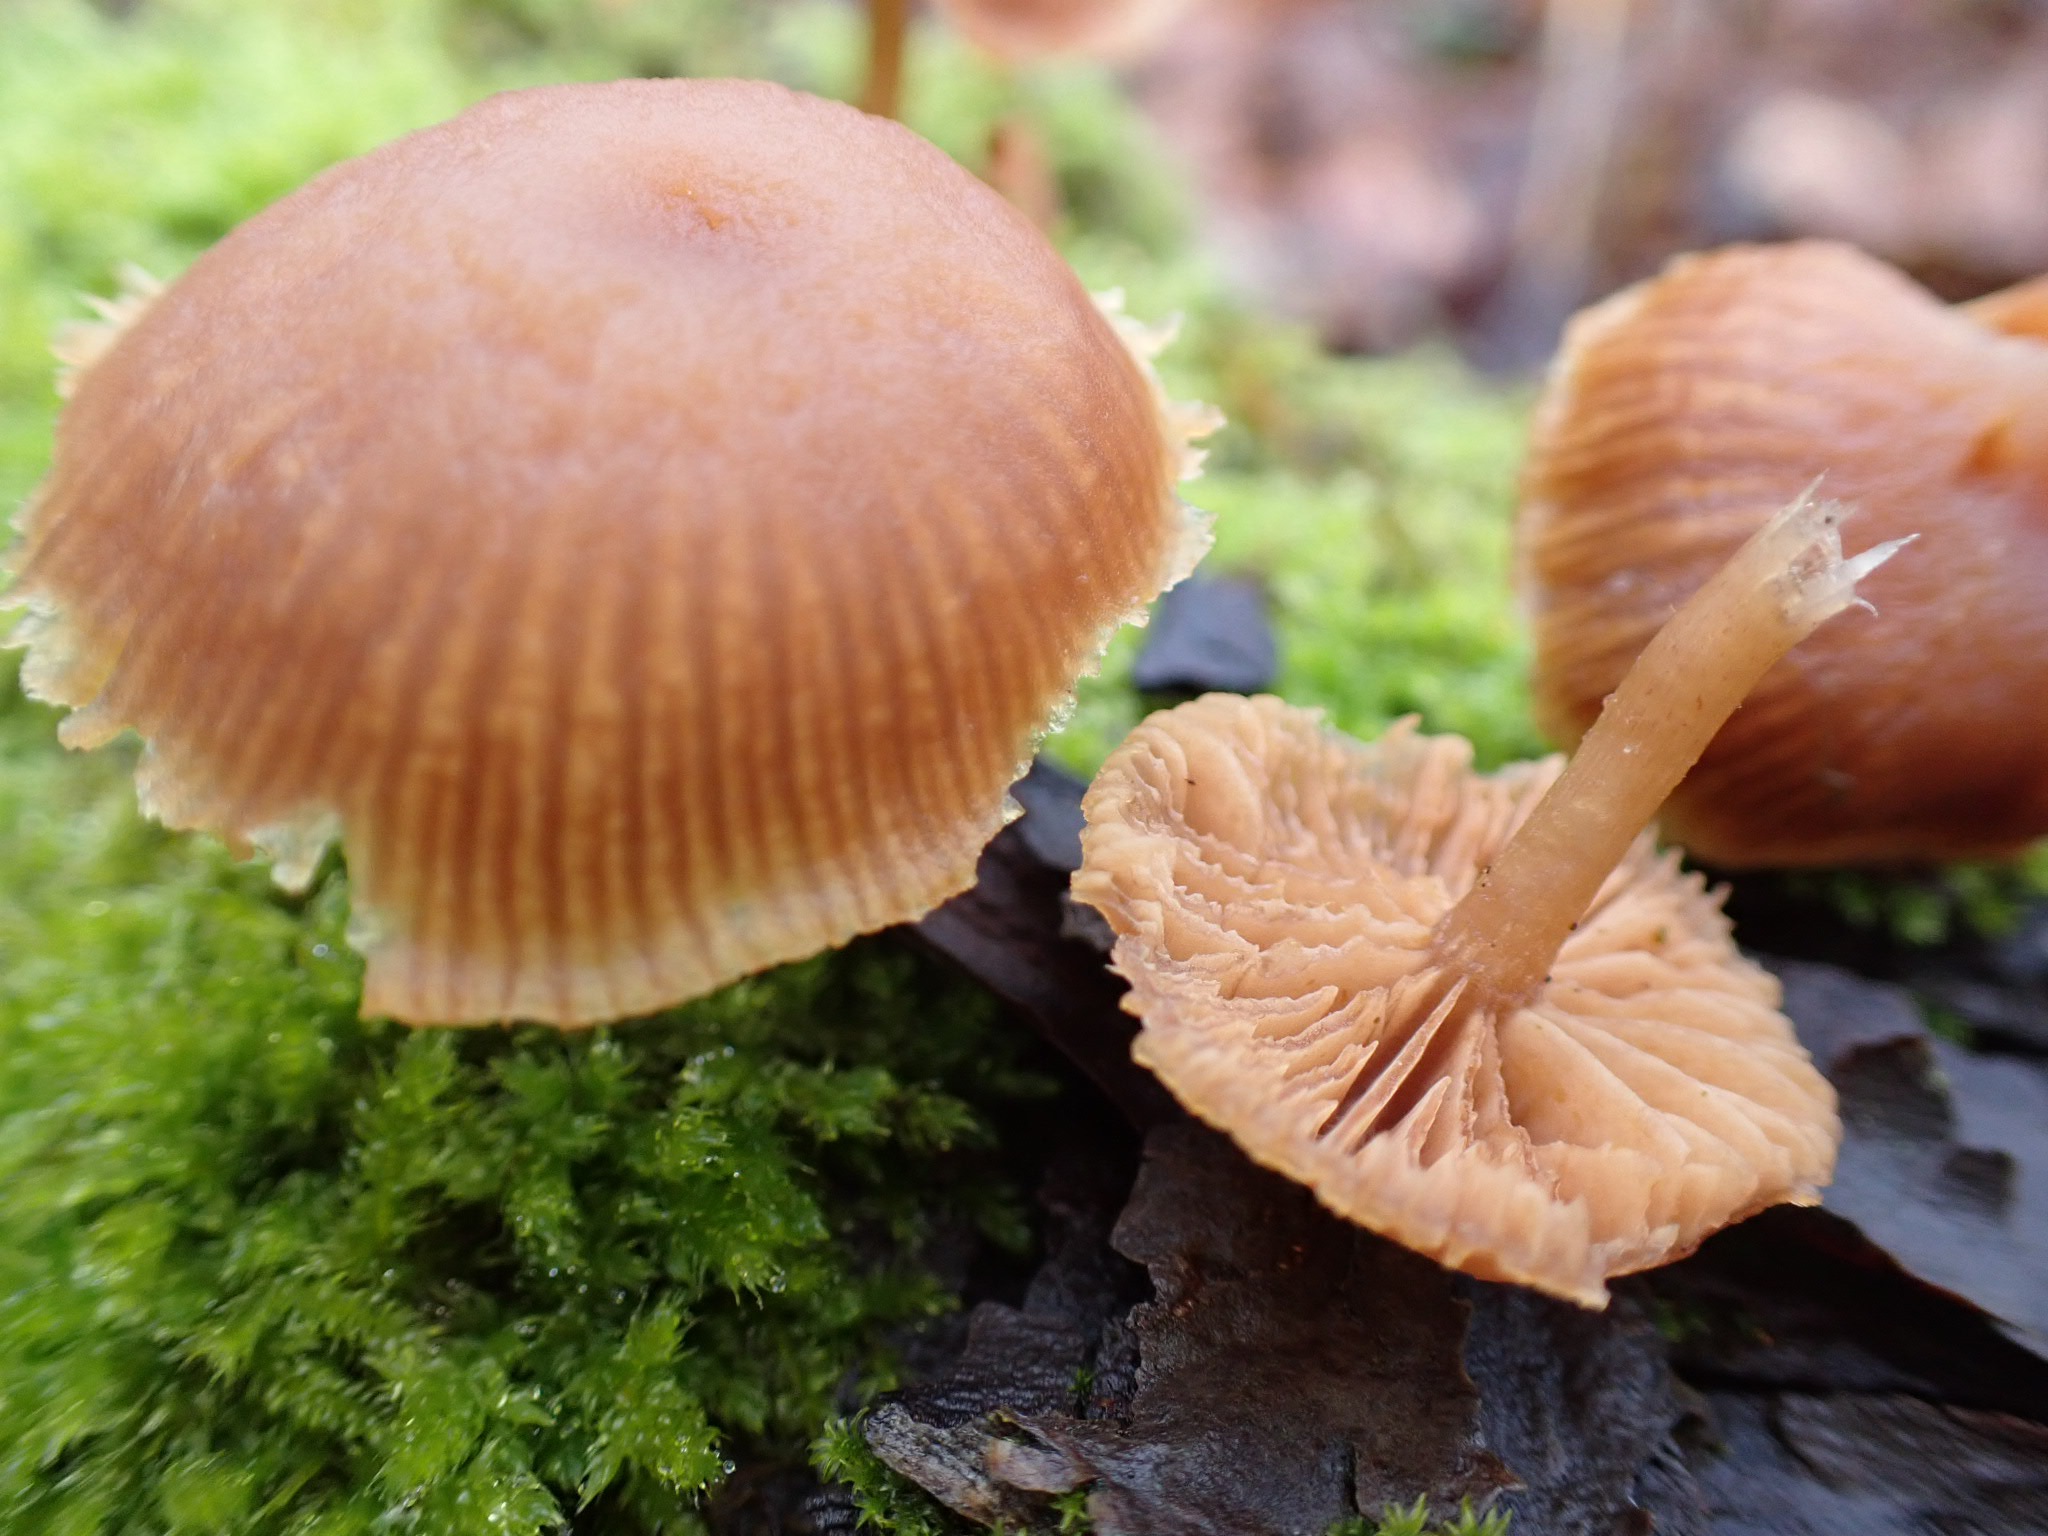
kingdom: Fungi
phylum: Basidiomycota
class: Agaricomycetes
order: Agaricales
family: Tubariaceae
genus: Tubaria
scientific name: Tubaria furfuracea
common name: kliddet fnughat
